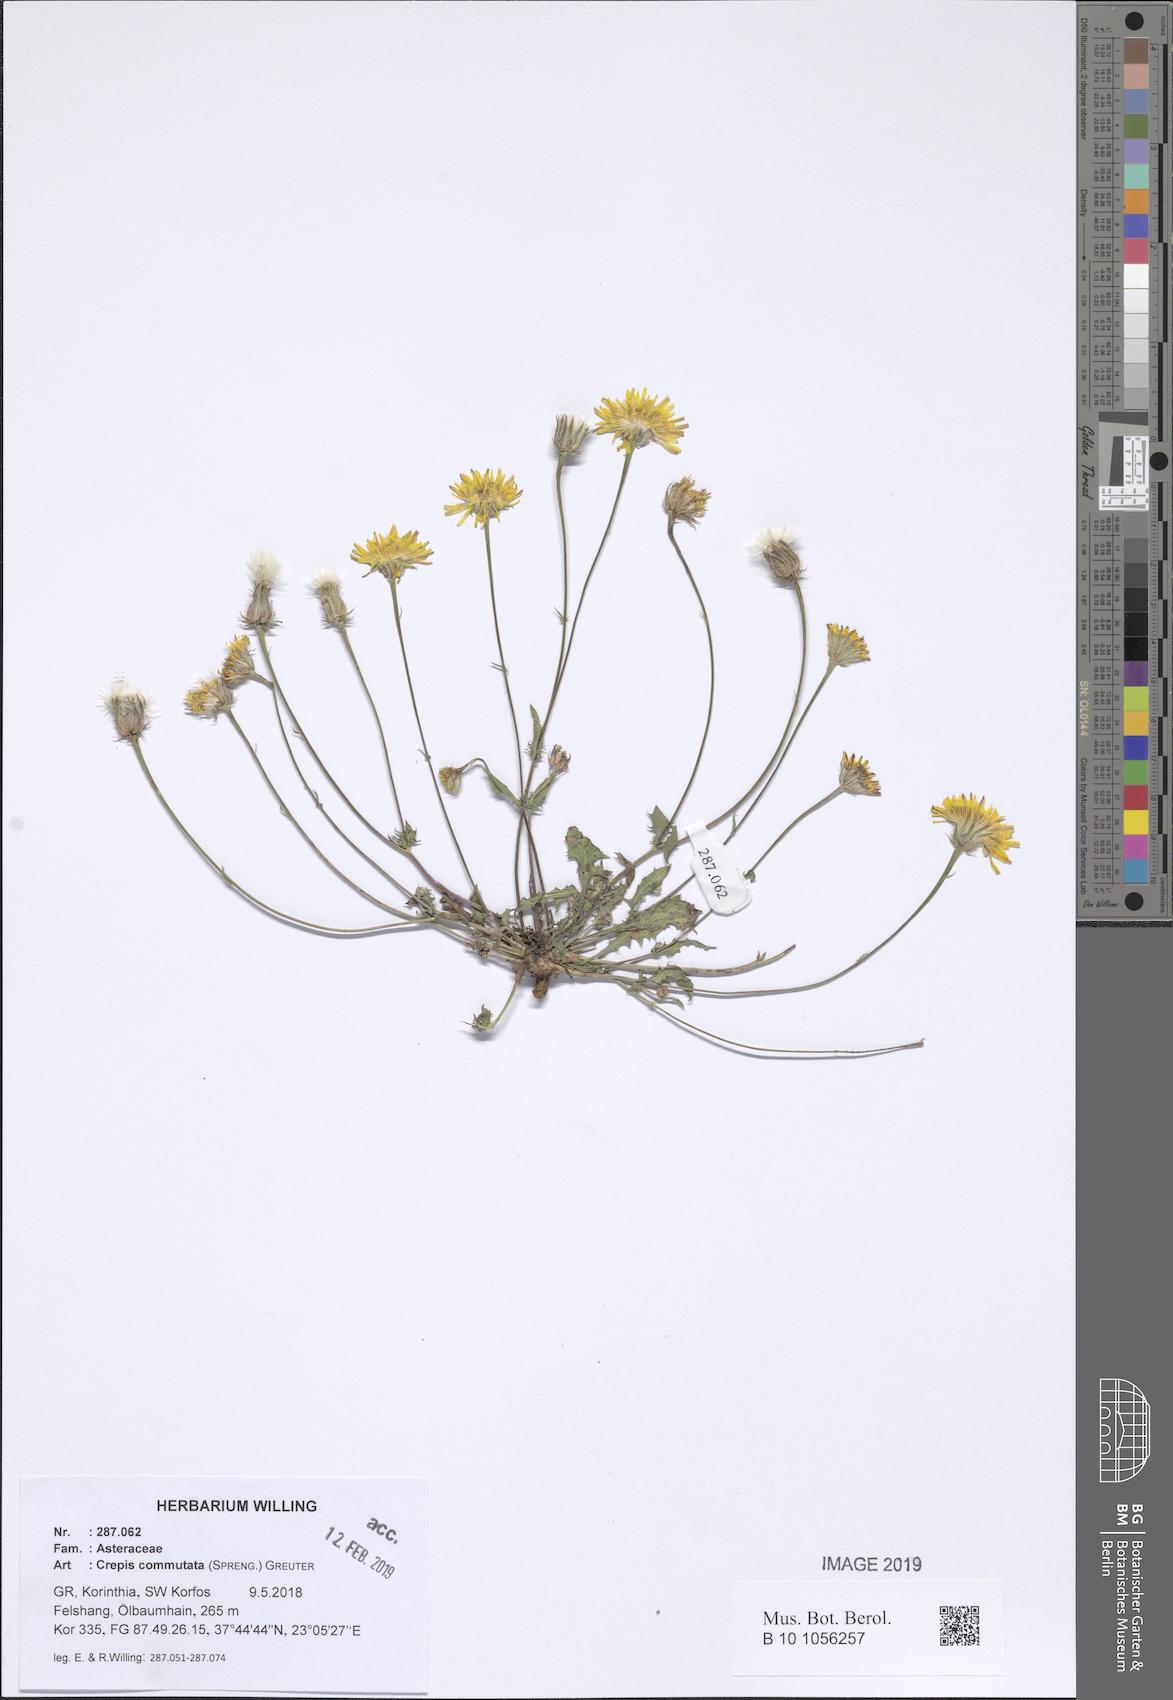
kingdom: Plantae
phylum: Tracheophyta
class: Magnoliopsida
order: Asterales
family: Asteraceae
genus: Crepis
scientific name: Crepis commutata
